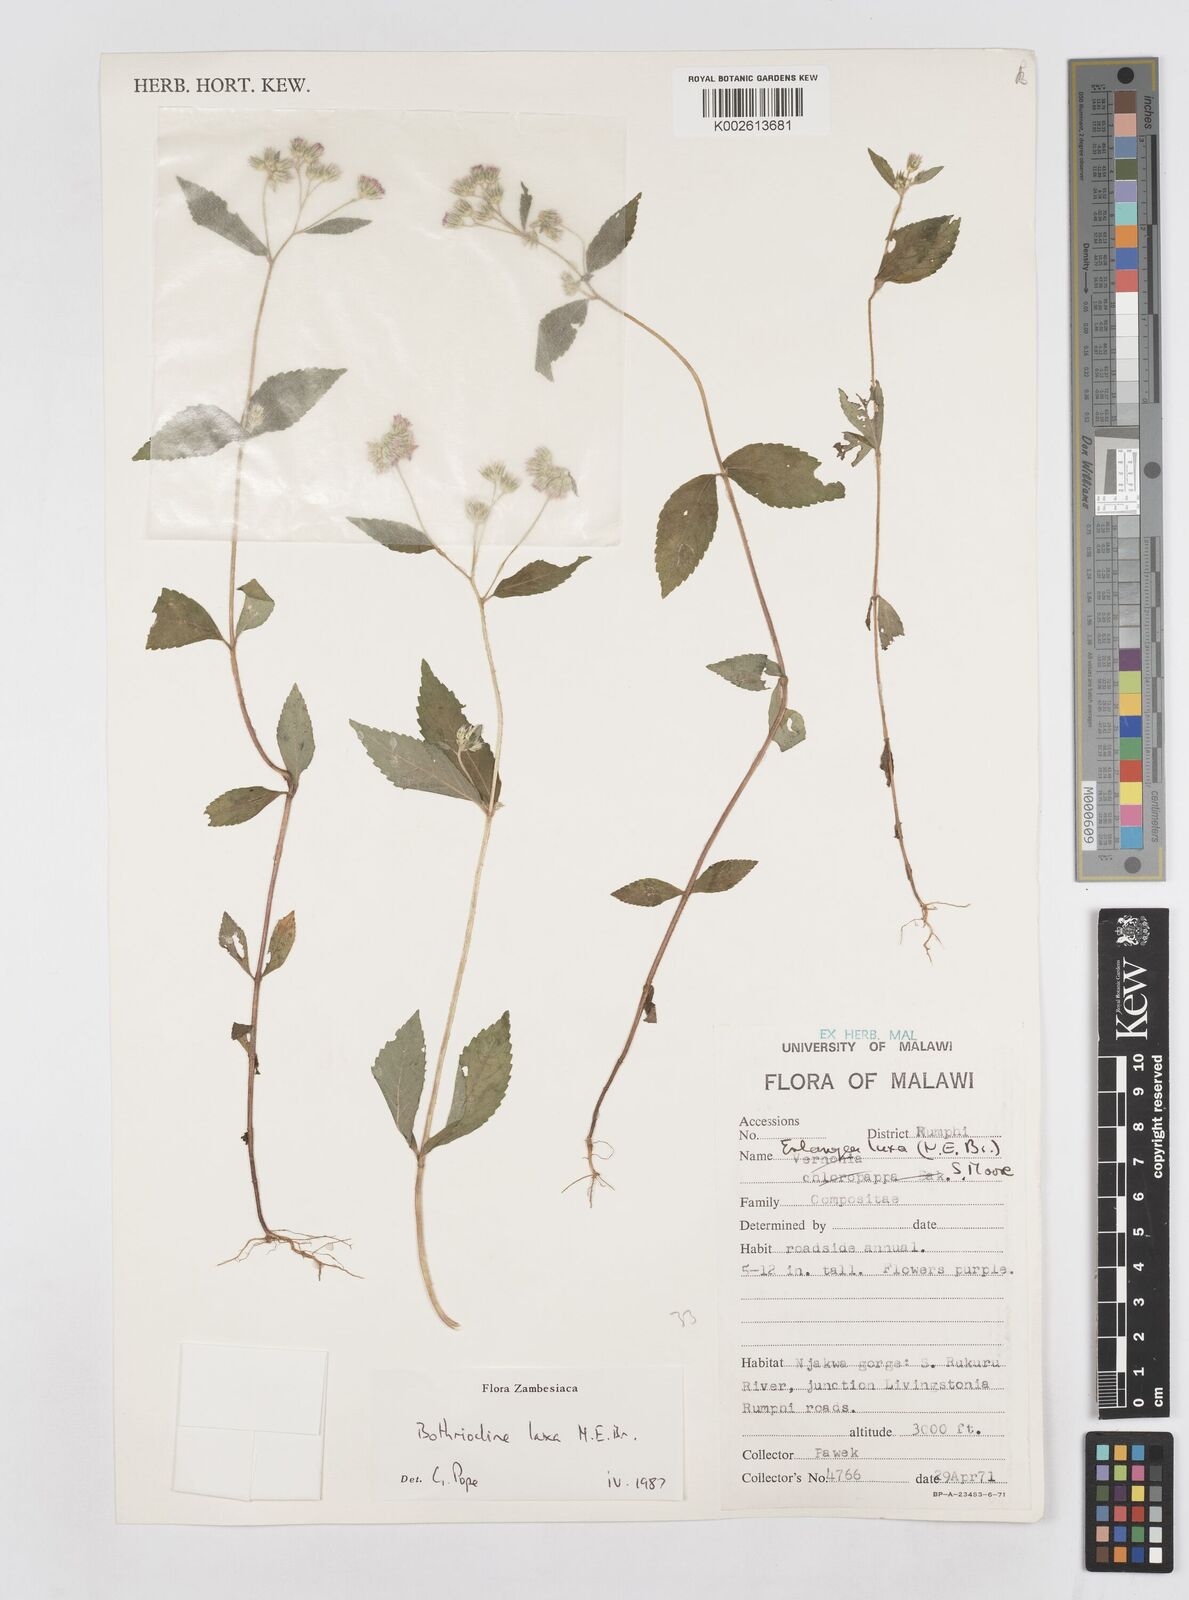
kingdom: Plantae
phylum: Tracheophyta
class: Magnoliopsida
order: Asterales
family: Asteraceae
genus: Bothriocline
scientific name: Bothriocline laxa
